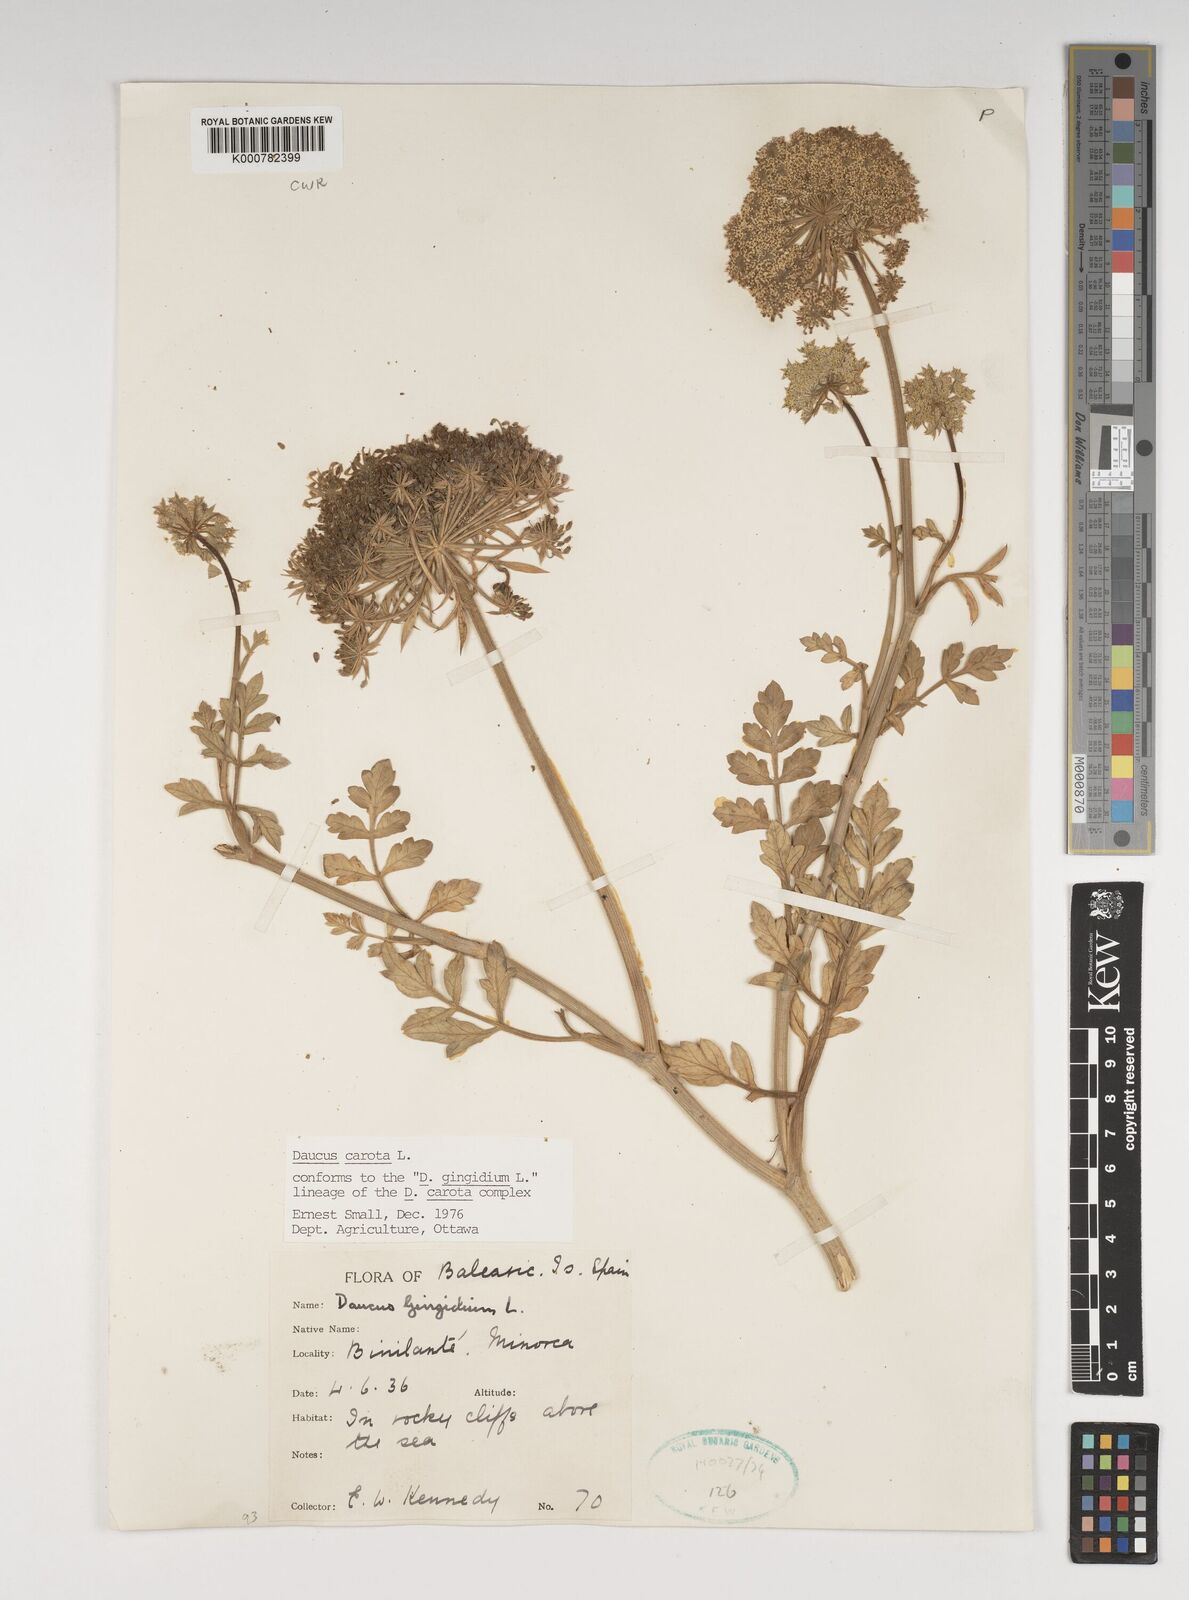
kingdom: Plantae
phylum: Tracheophyta
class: Magnoliopsida
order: Apiales
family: Apiaceae
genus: Daucus
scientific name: Daucus carota
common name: Wild carrot
